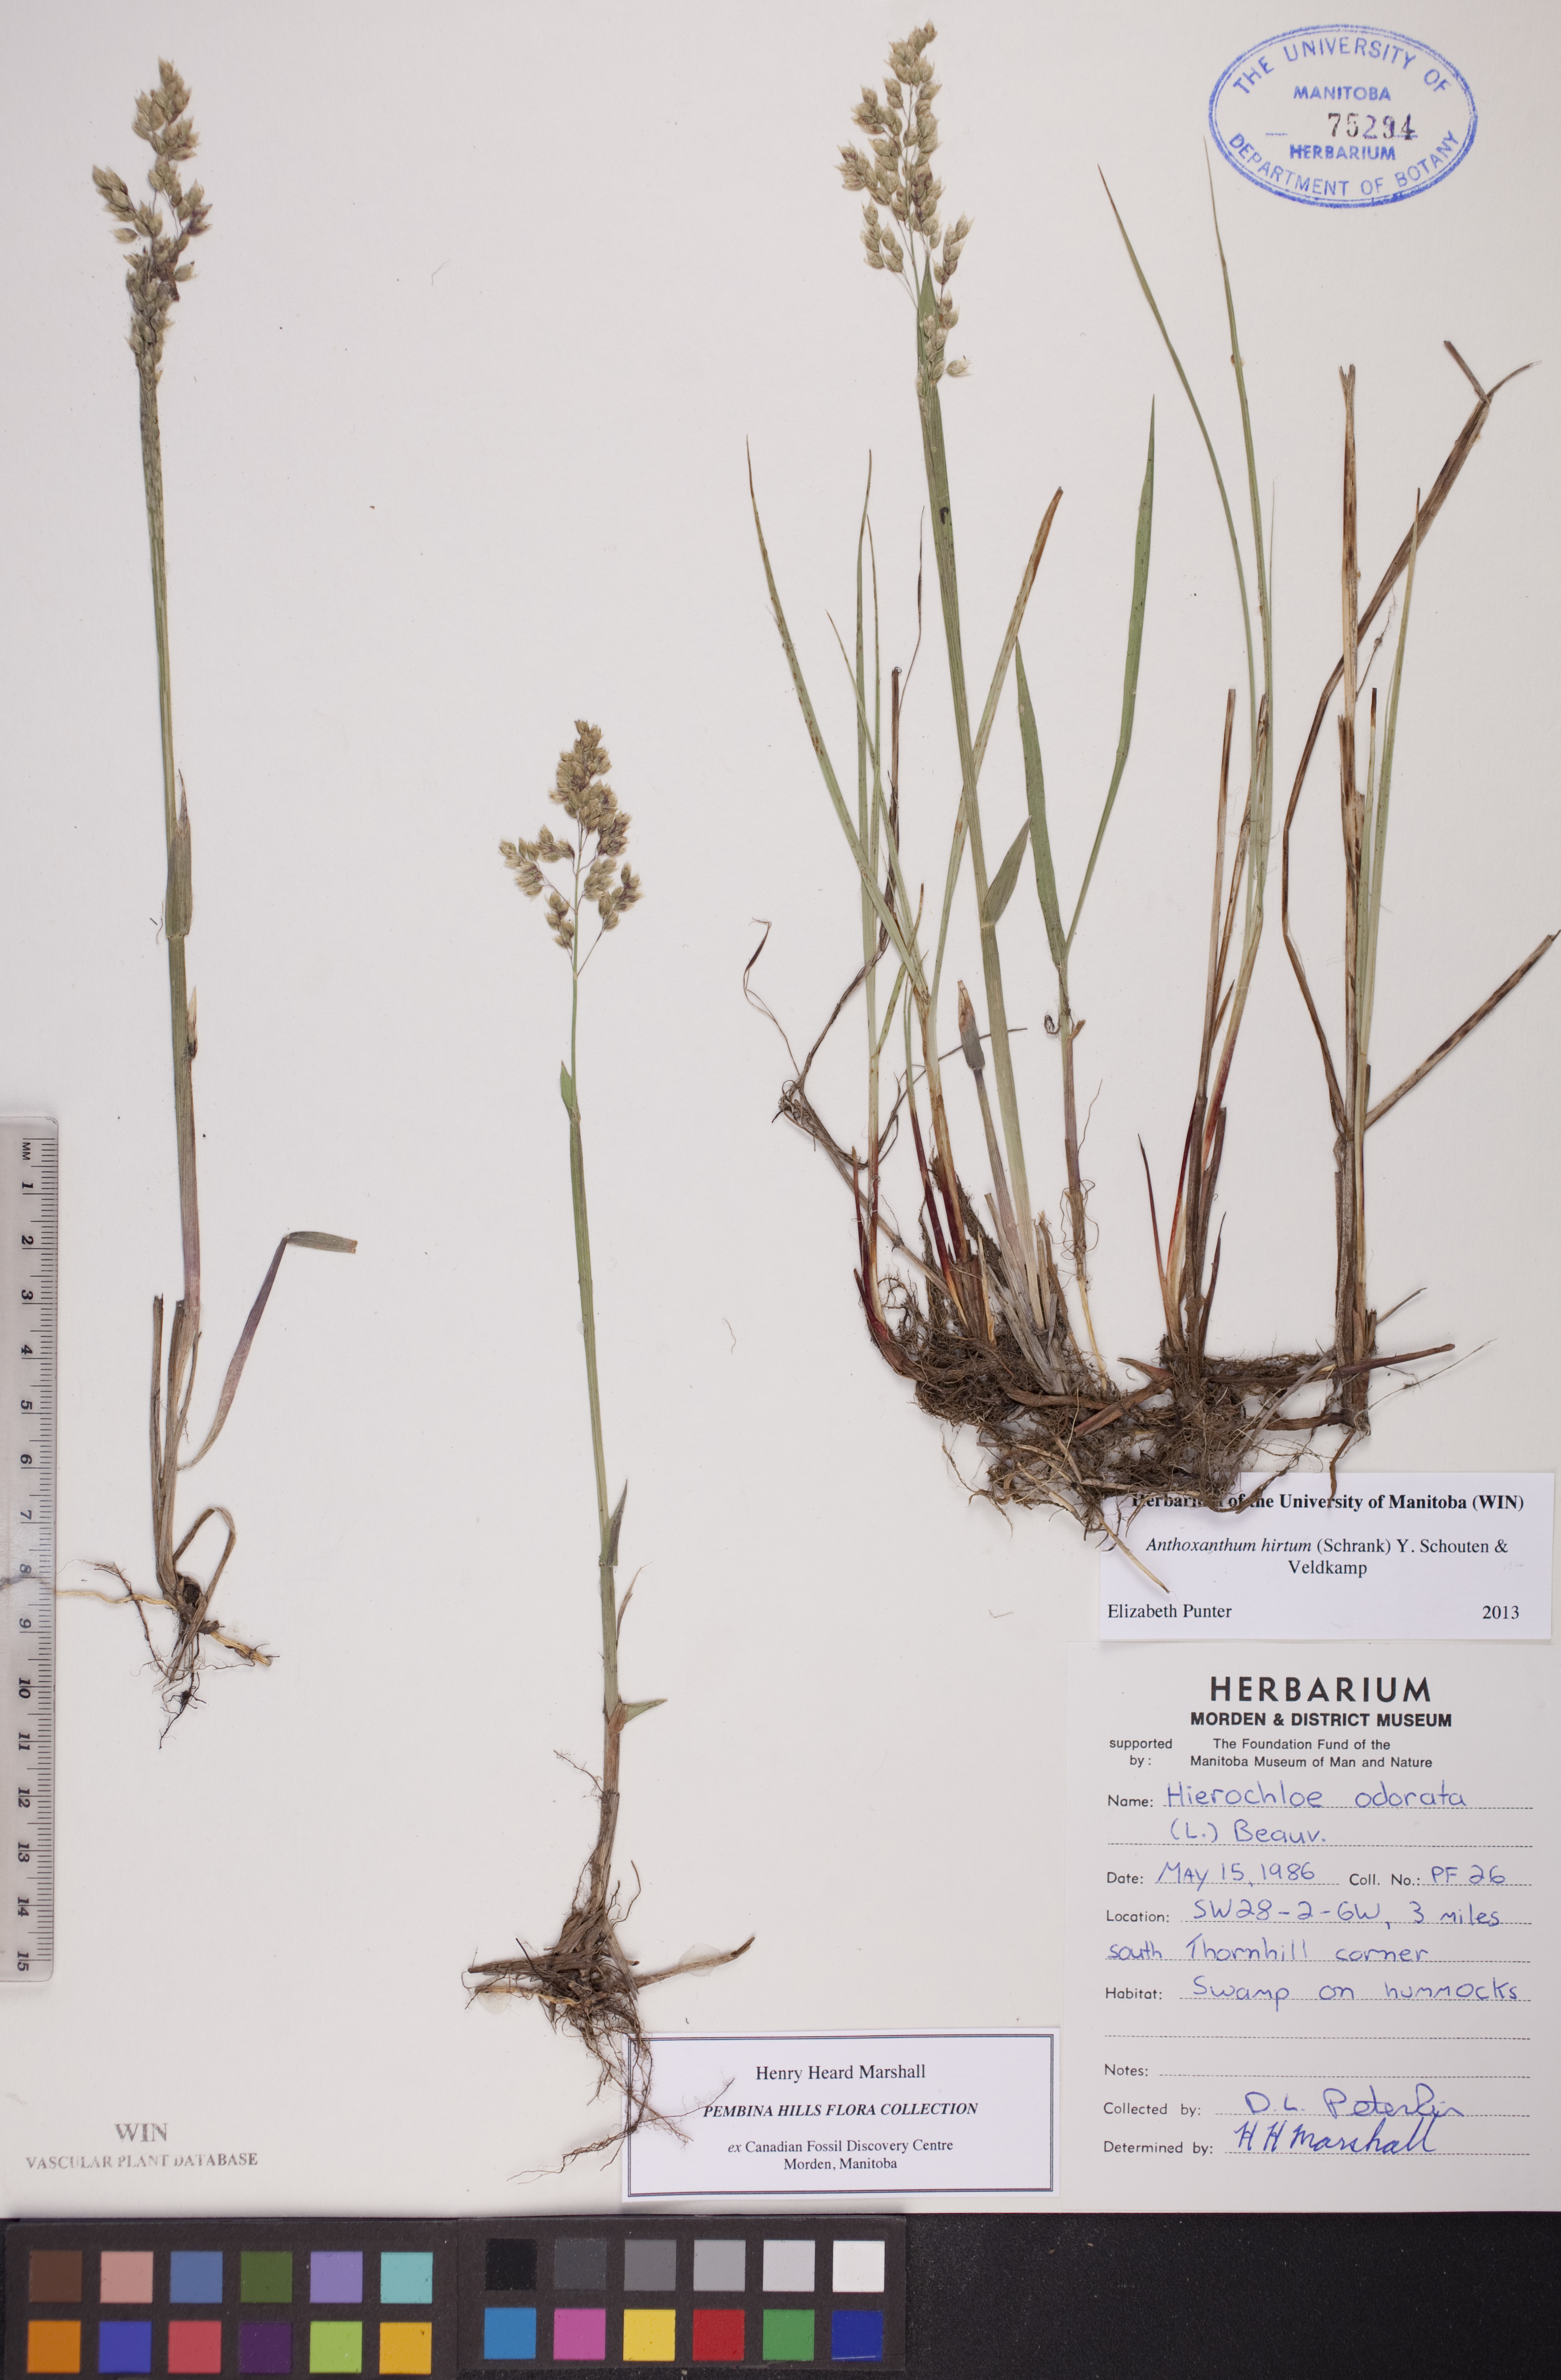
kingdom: Plantae
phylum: Tracheophyta
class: Liliopsida
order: Poales
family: Poaceae
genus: Anthoxanthum
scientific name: Anthoxanthum nitens
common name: Holy grass
